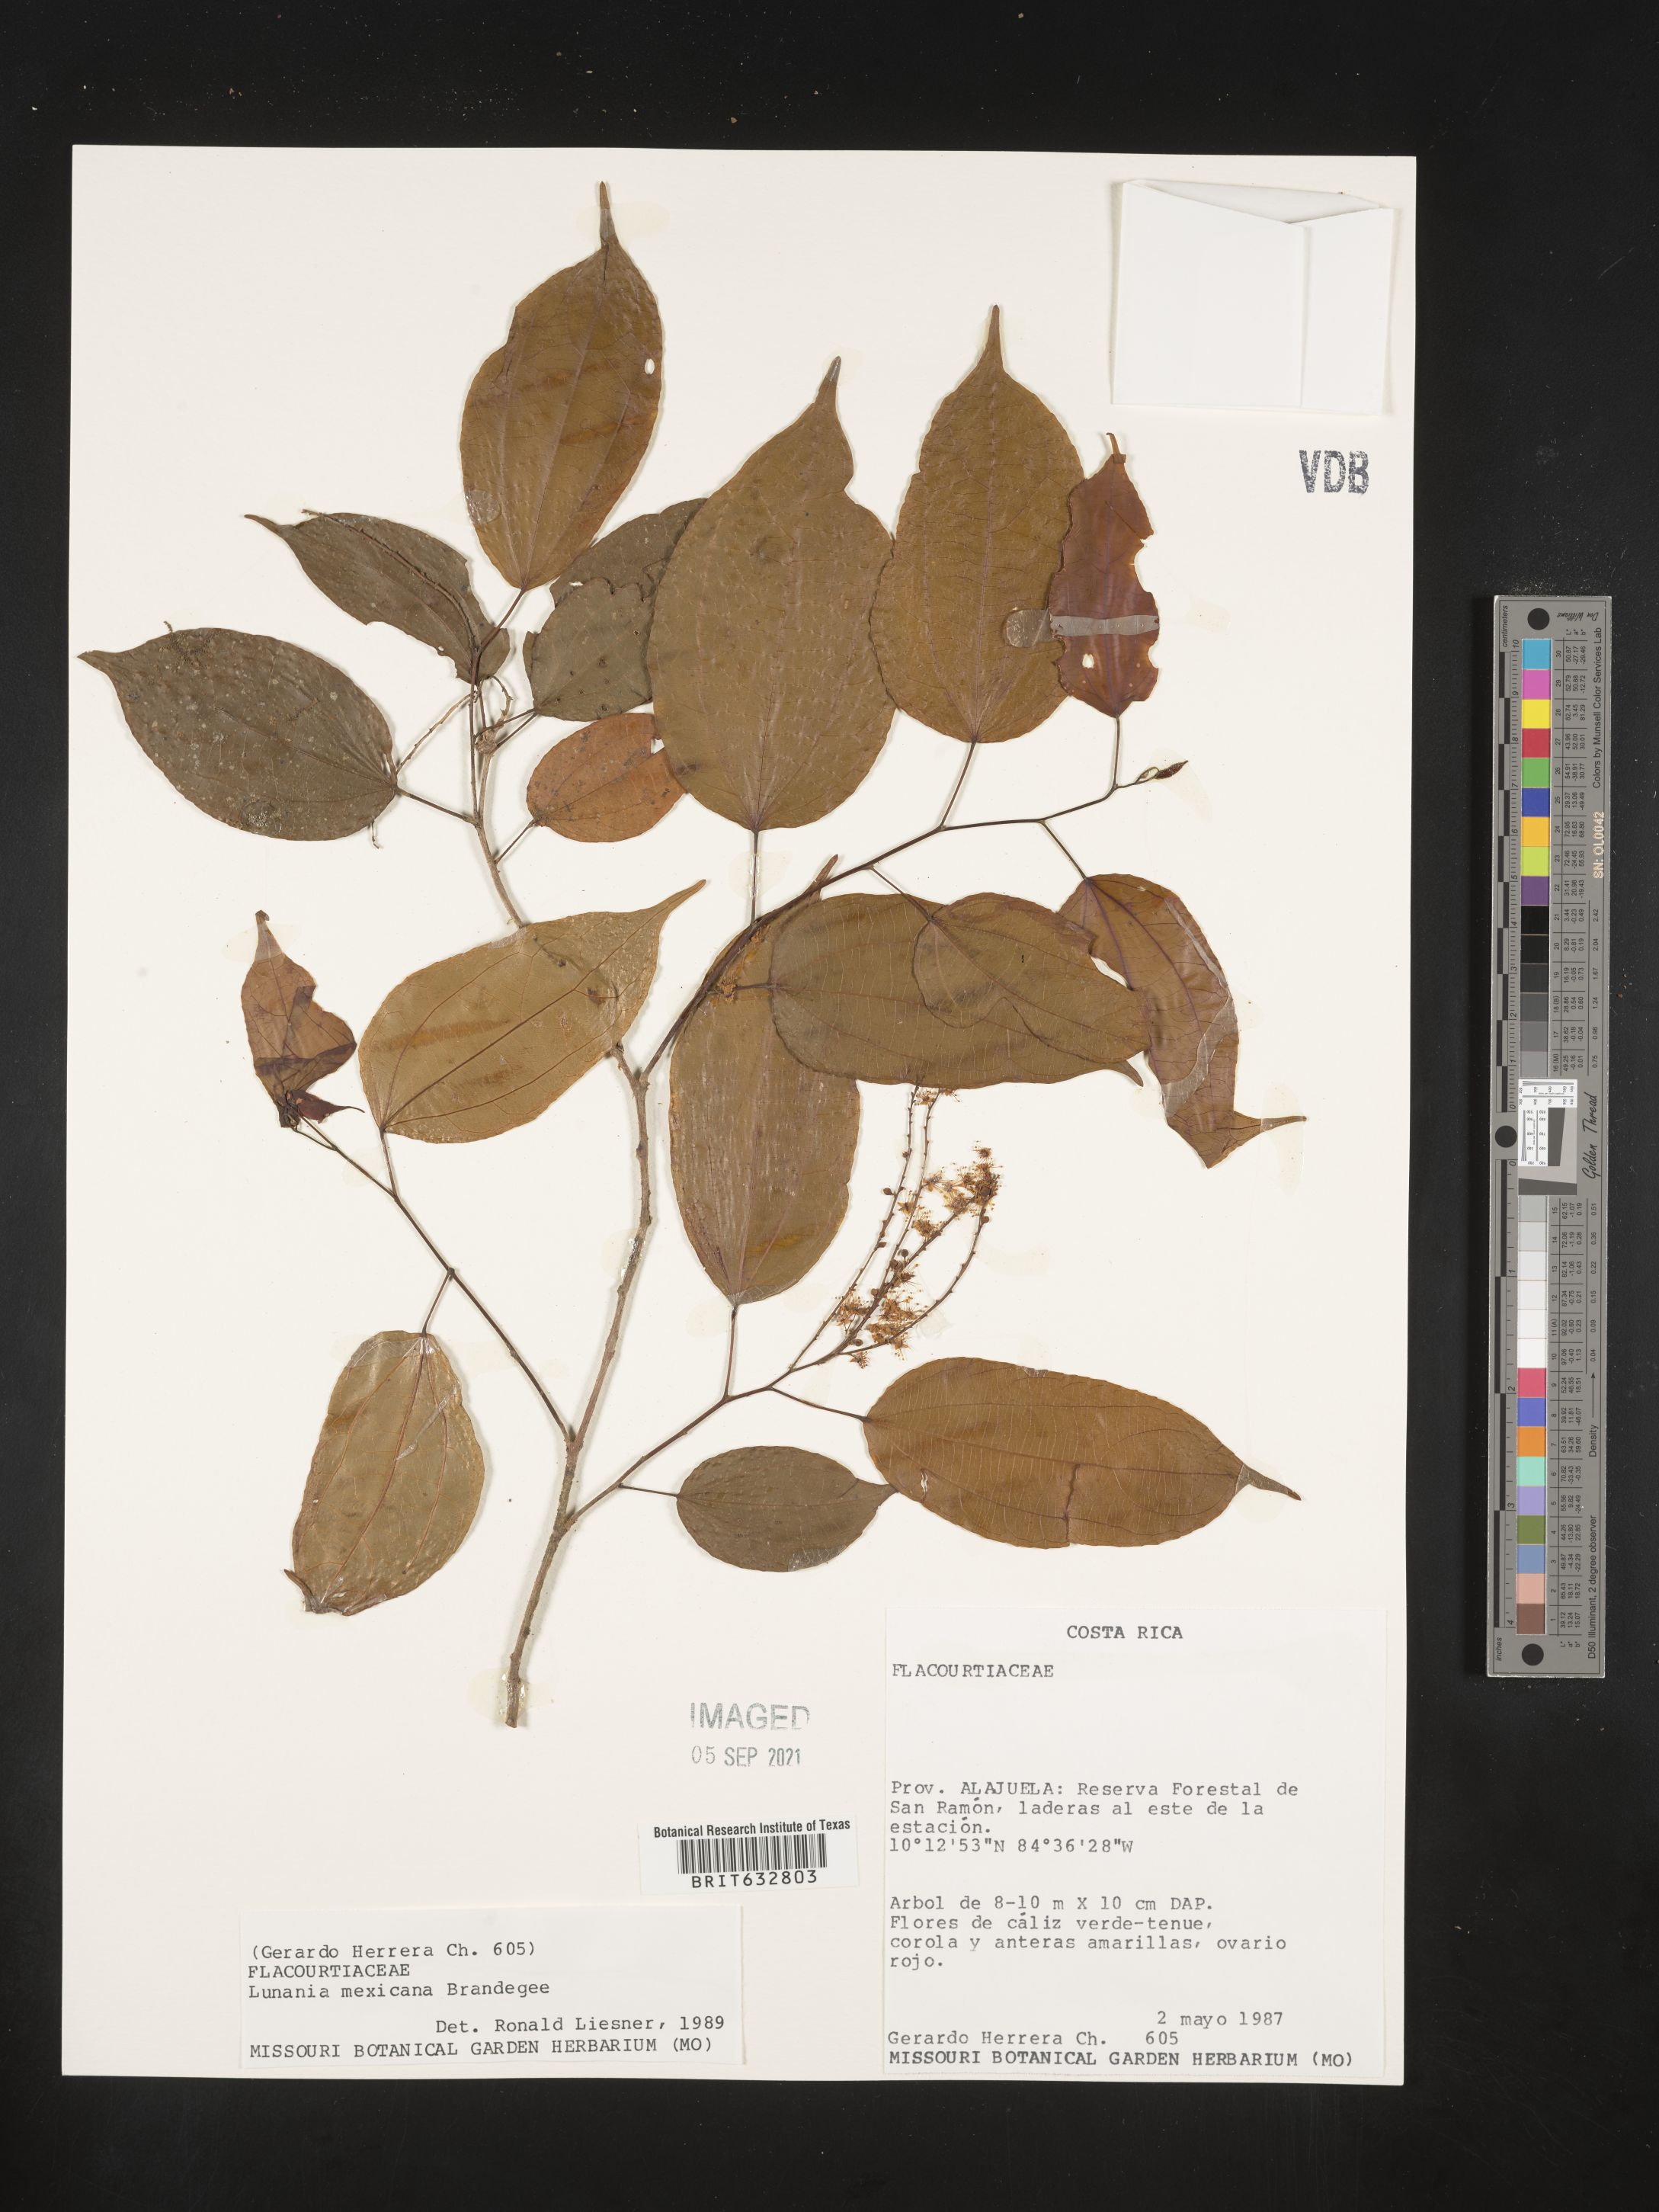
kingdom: Plantae
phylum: Tracheophyta
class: Magnoliopsida
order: Malpighiales
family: Salicaceae
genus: Lunania
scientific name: Lunania
